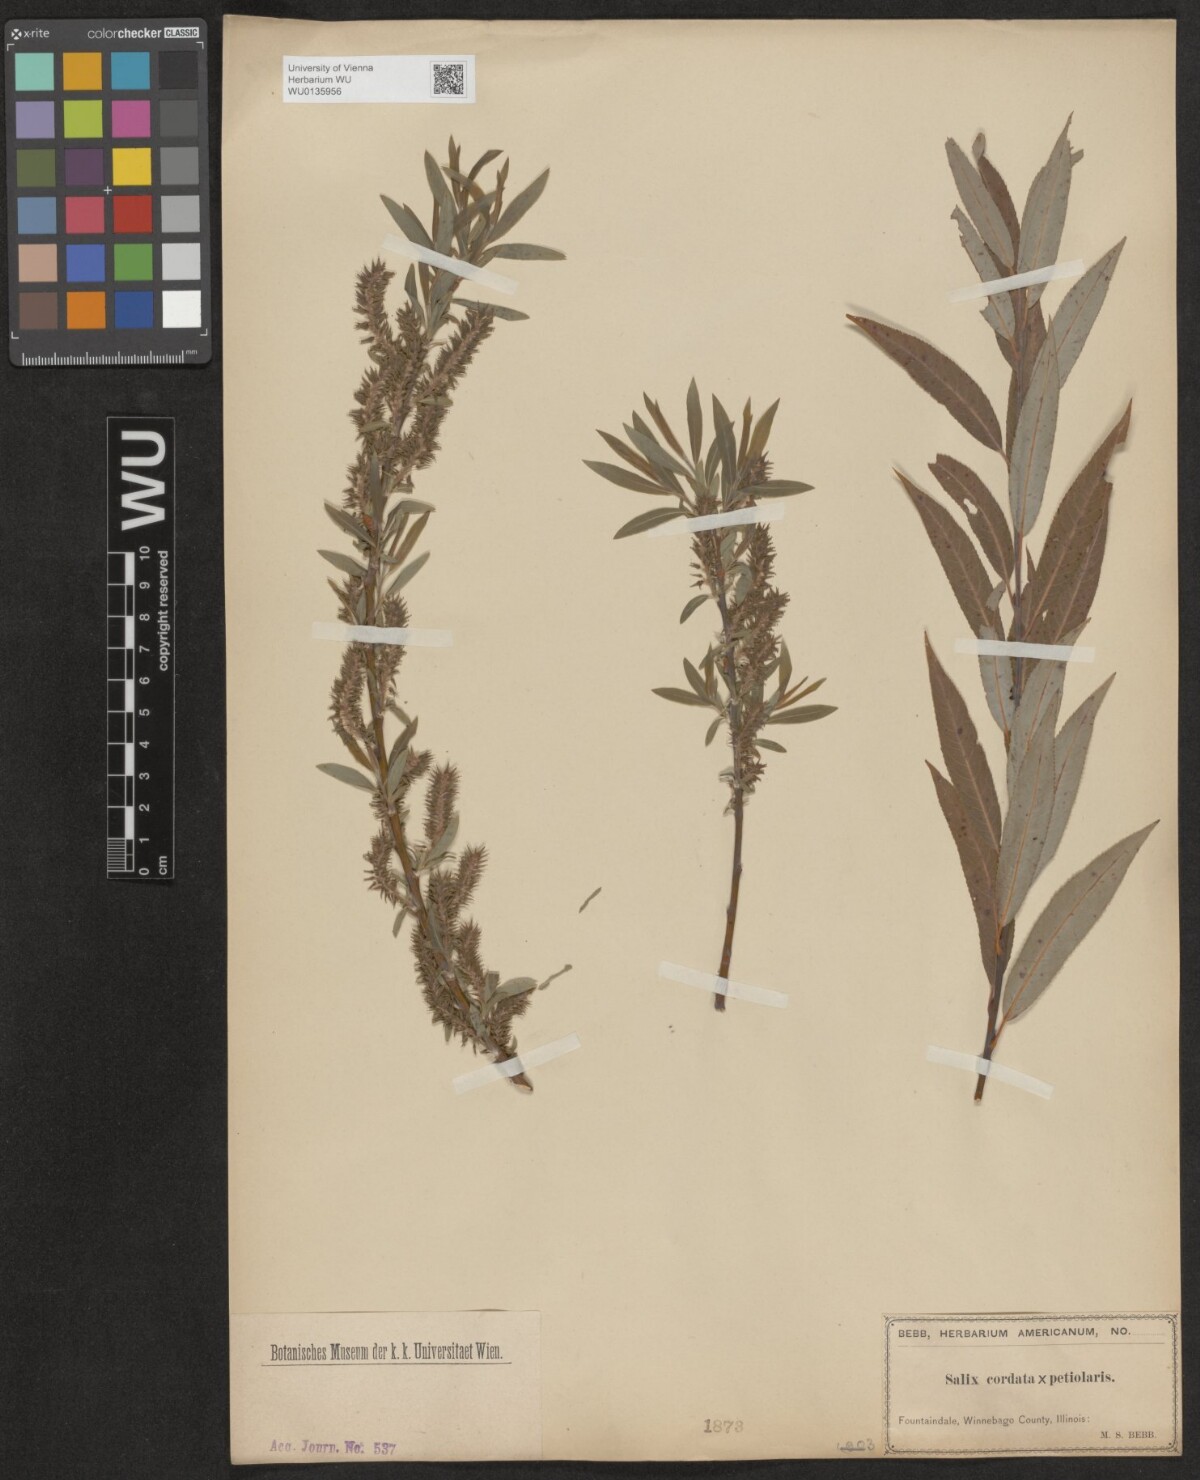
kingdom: Plantae
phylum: Tracheophyta
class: Magnoliopsida
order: Malpighiales
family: Salicaceae
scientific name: Salicaceae
